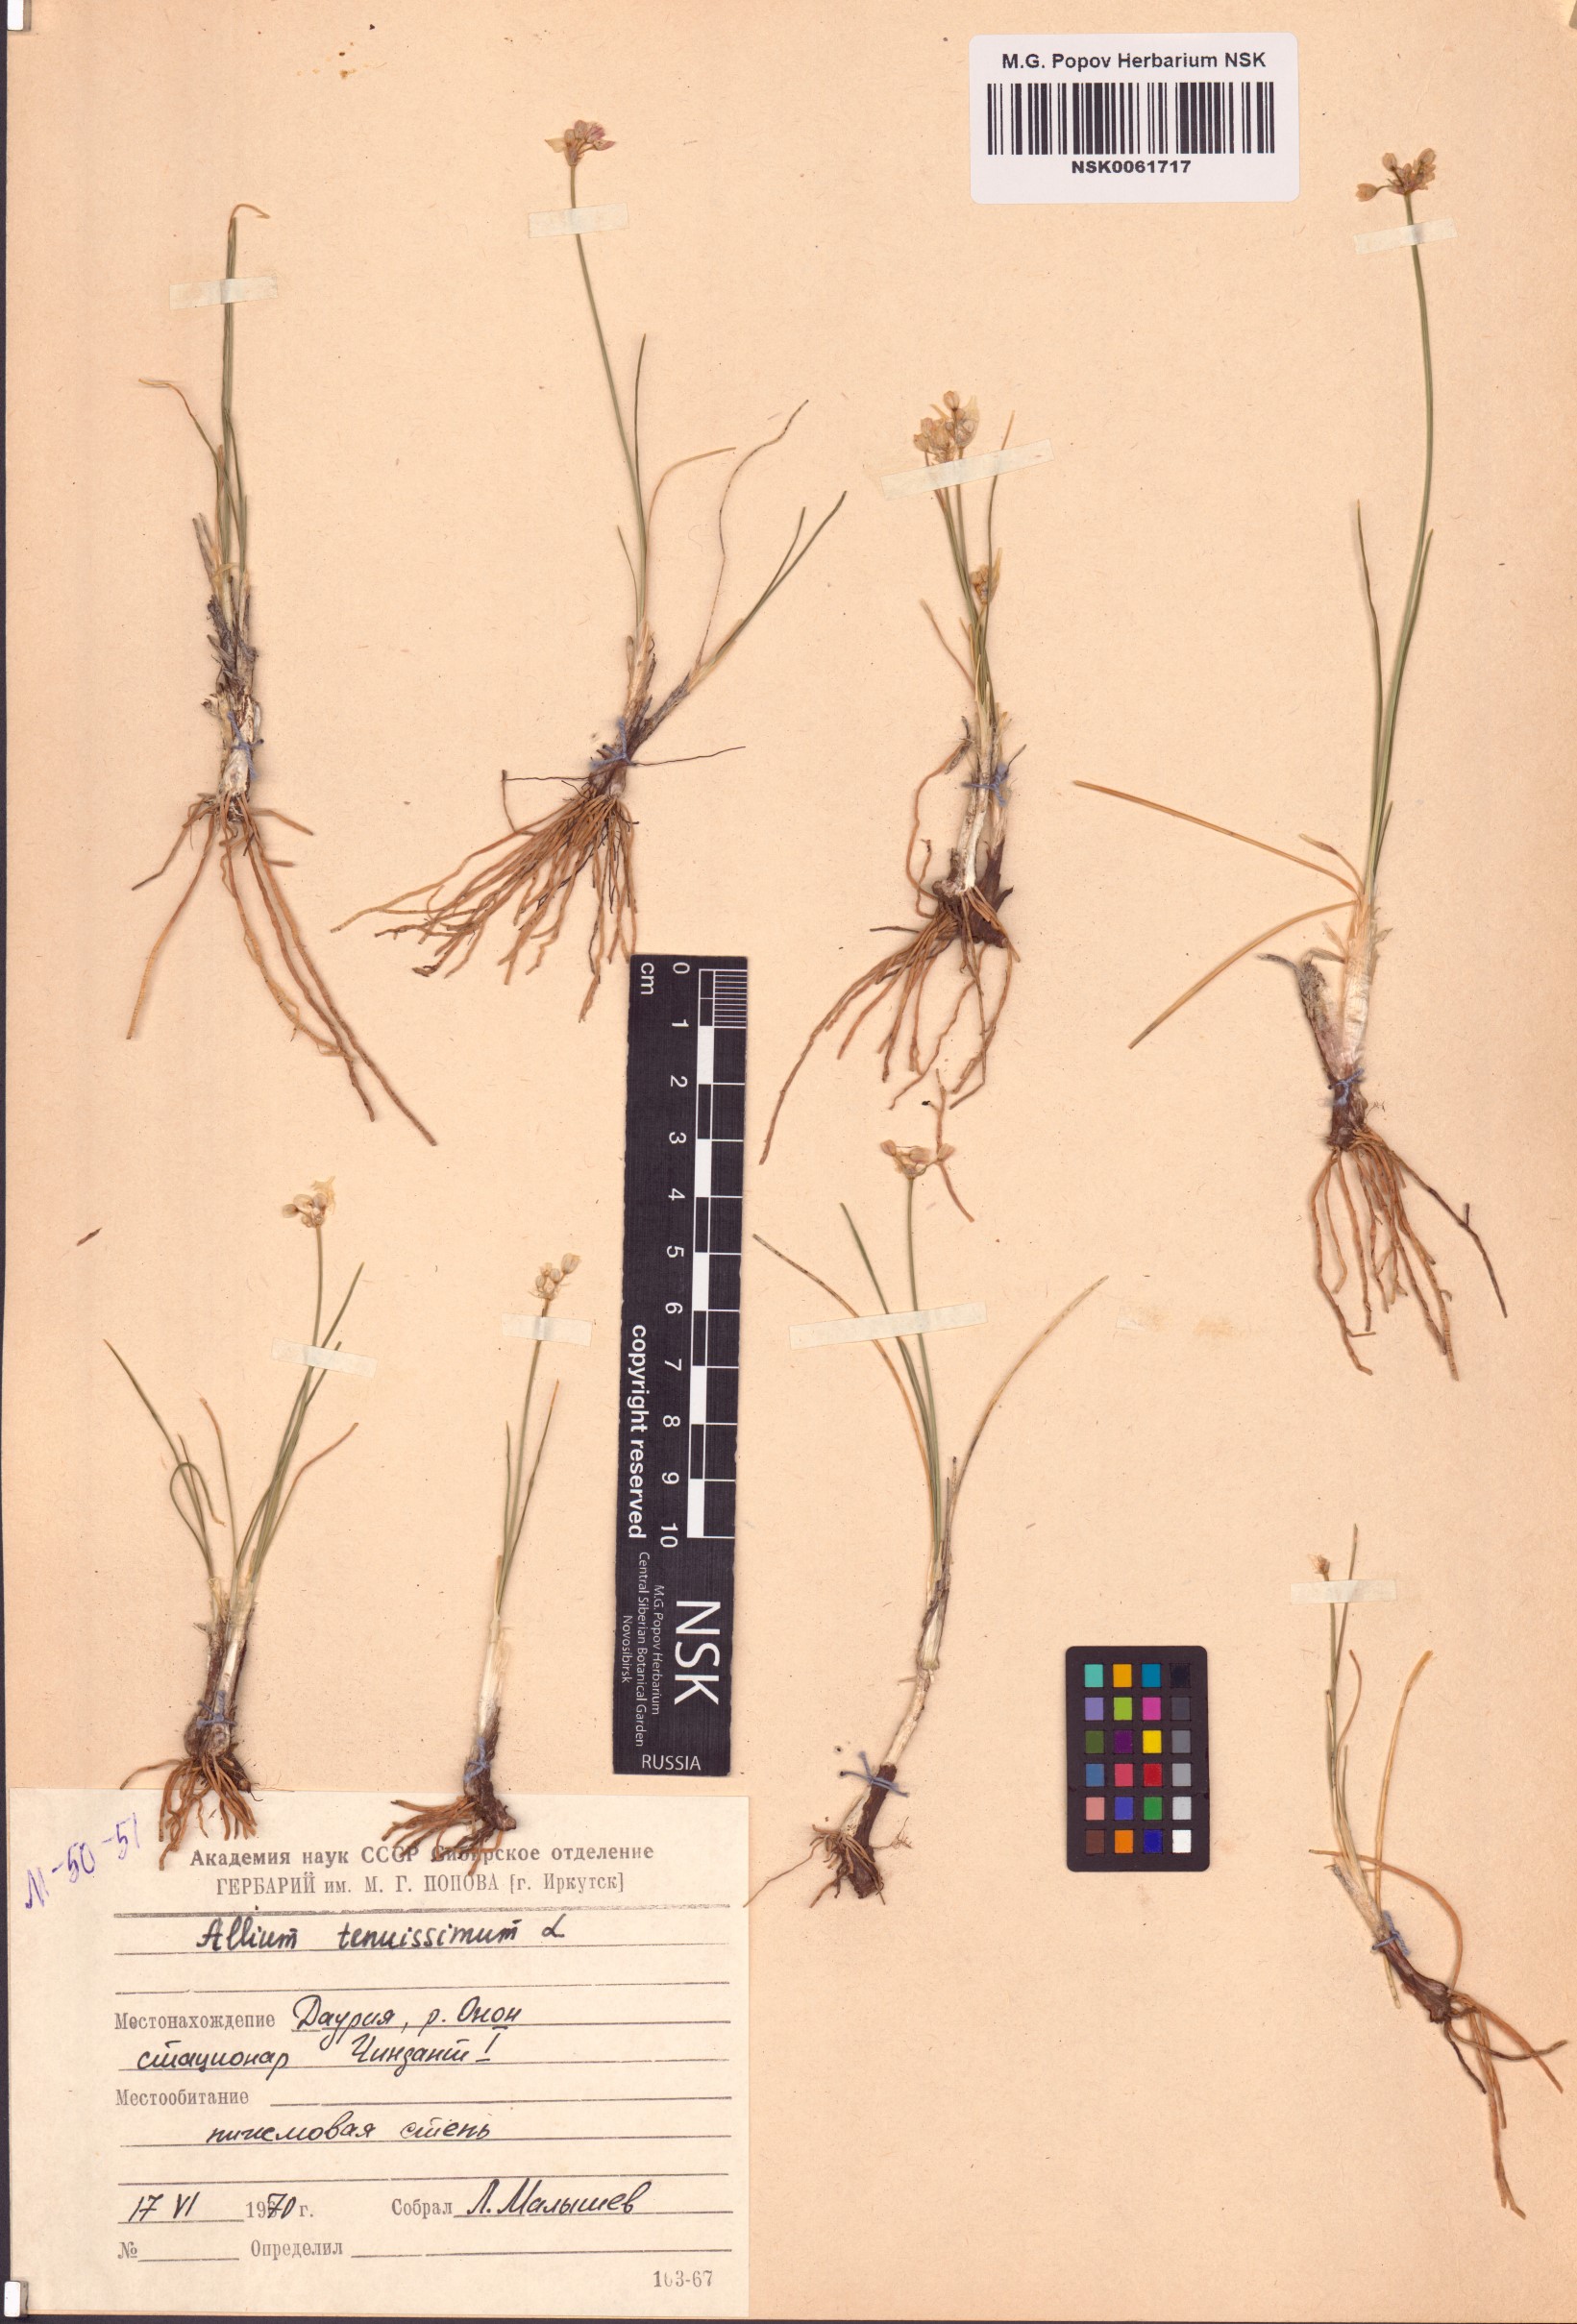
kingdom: Plantae
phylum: Tracheophyta
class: Liliopsida
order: Asparagales
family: Amaryllidaceae
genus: Allium
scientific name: Allium tenuissimum
